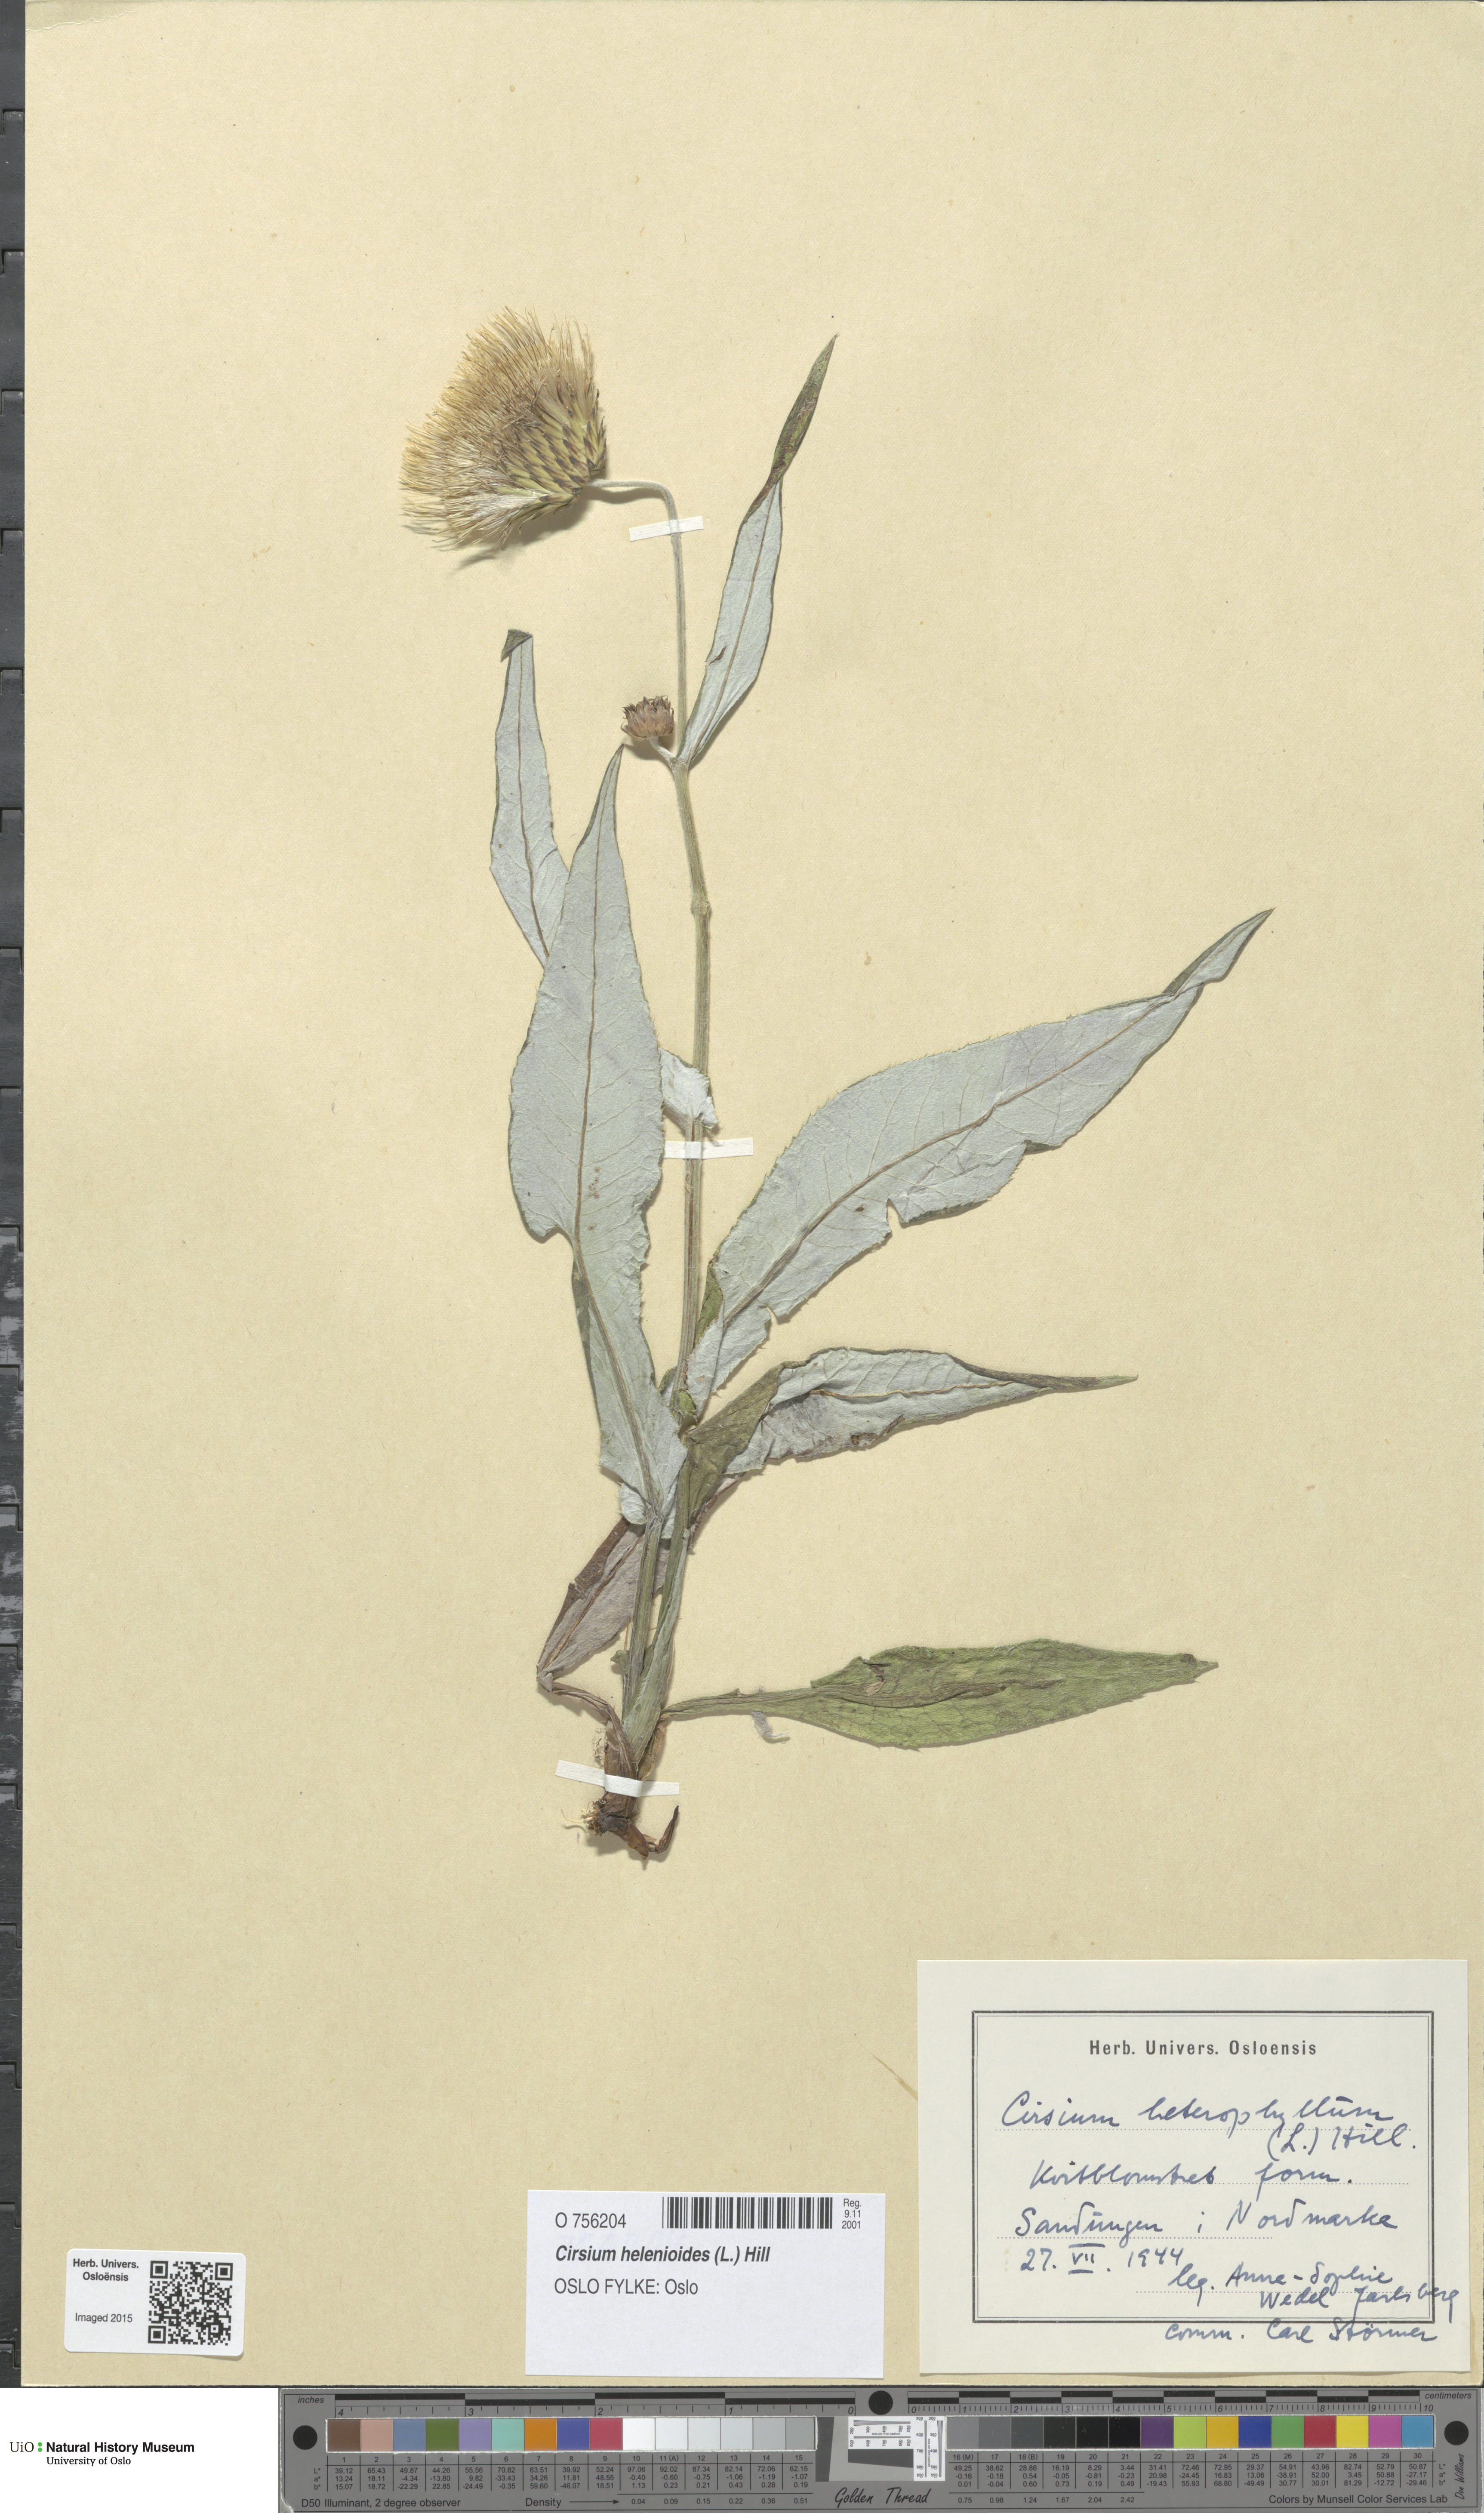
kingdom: Plantae
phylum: Tracheophyta
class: Magnoliopsida
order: Asterales
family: Asteraceae
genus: Cirsium
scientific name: Cirsium heterophyllum
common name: Melancholy thistle
